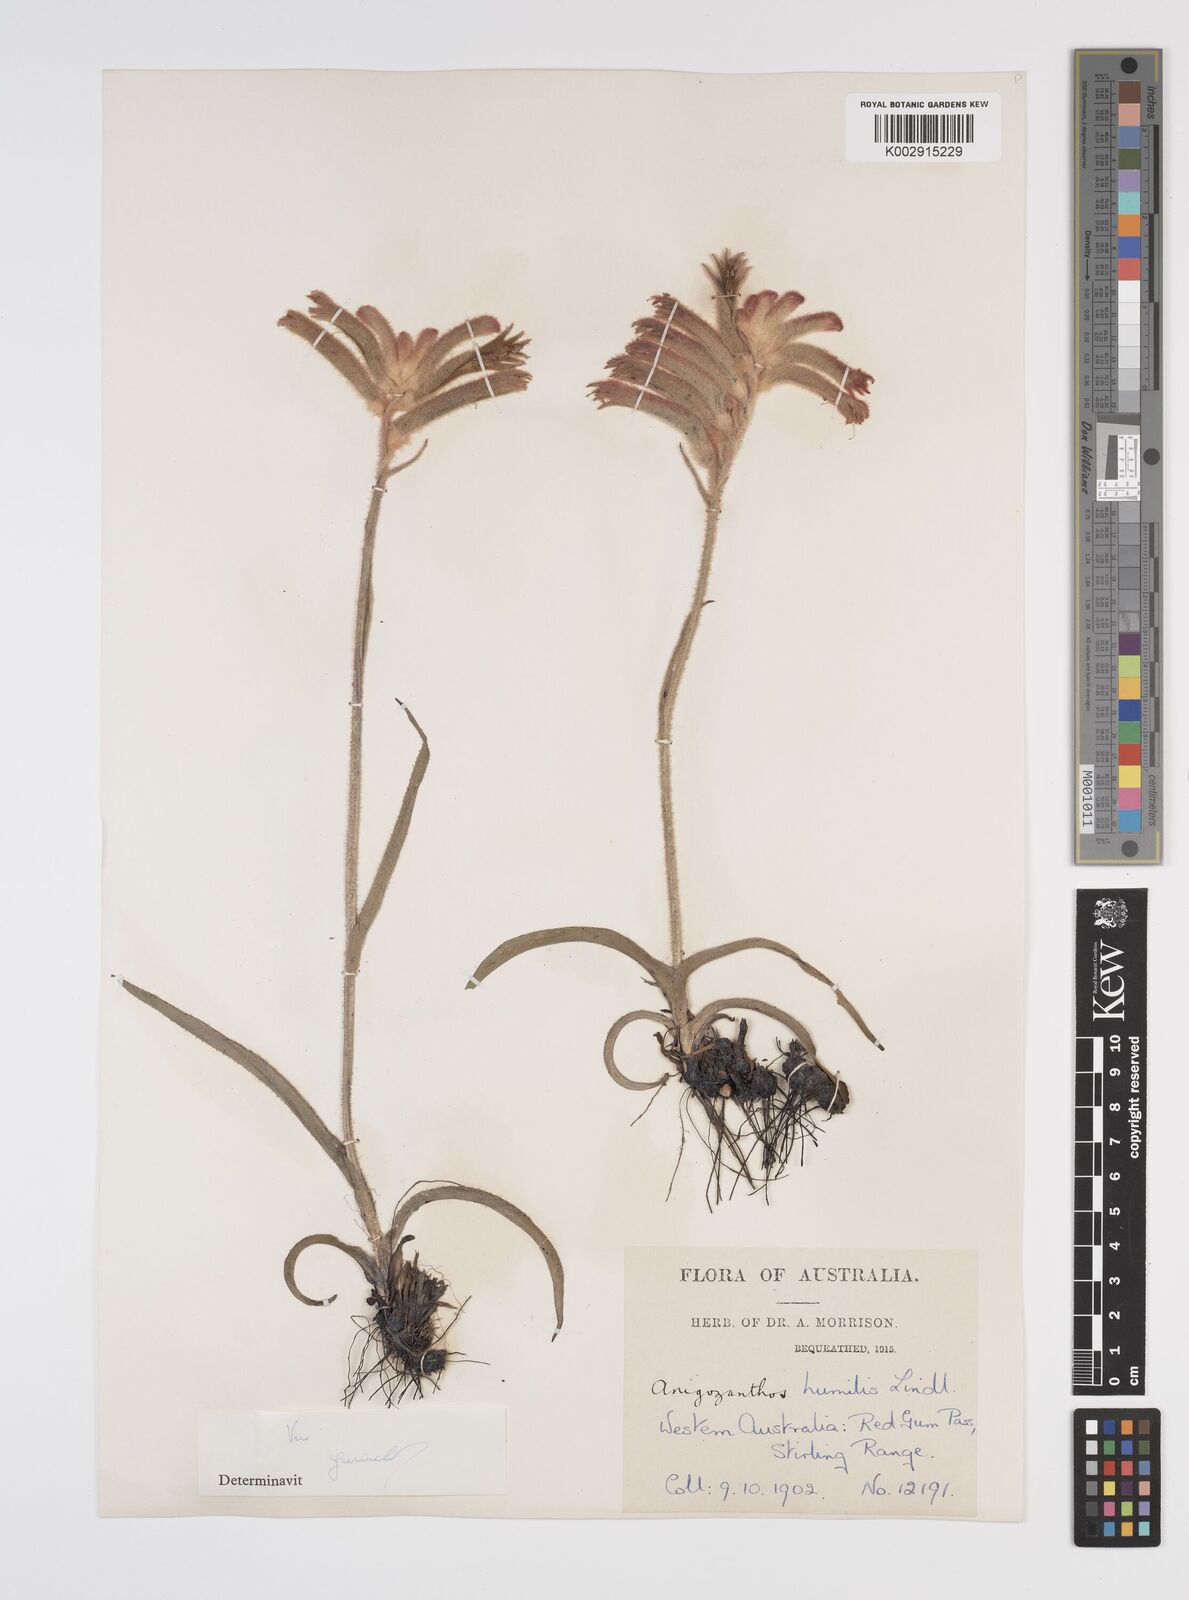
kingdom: Plantae
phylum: Tracheophyta
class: Liliopsida
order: Commelinales
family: Haemodoraceae
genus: Anigozanthos
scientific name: Anigozanthos humilis
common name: Cat's-paw
